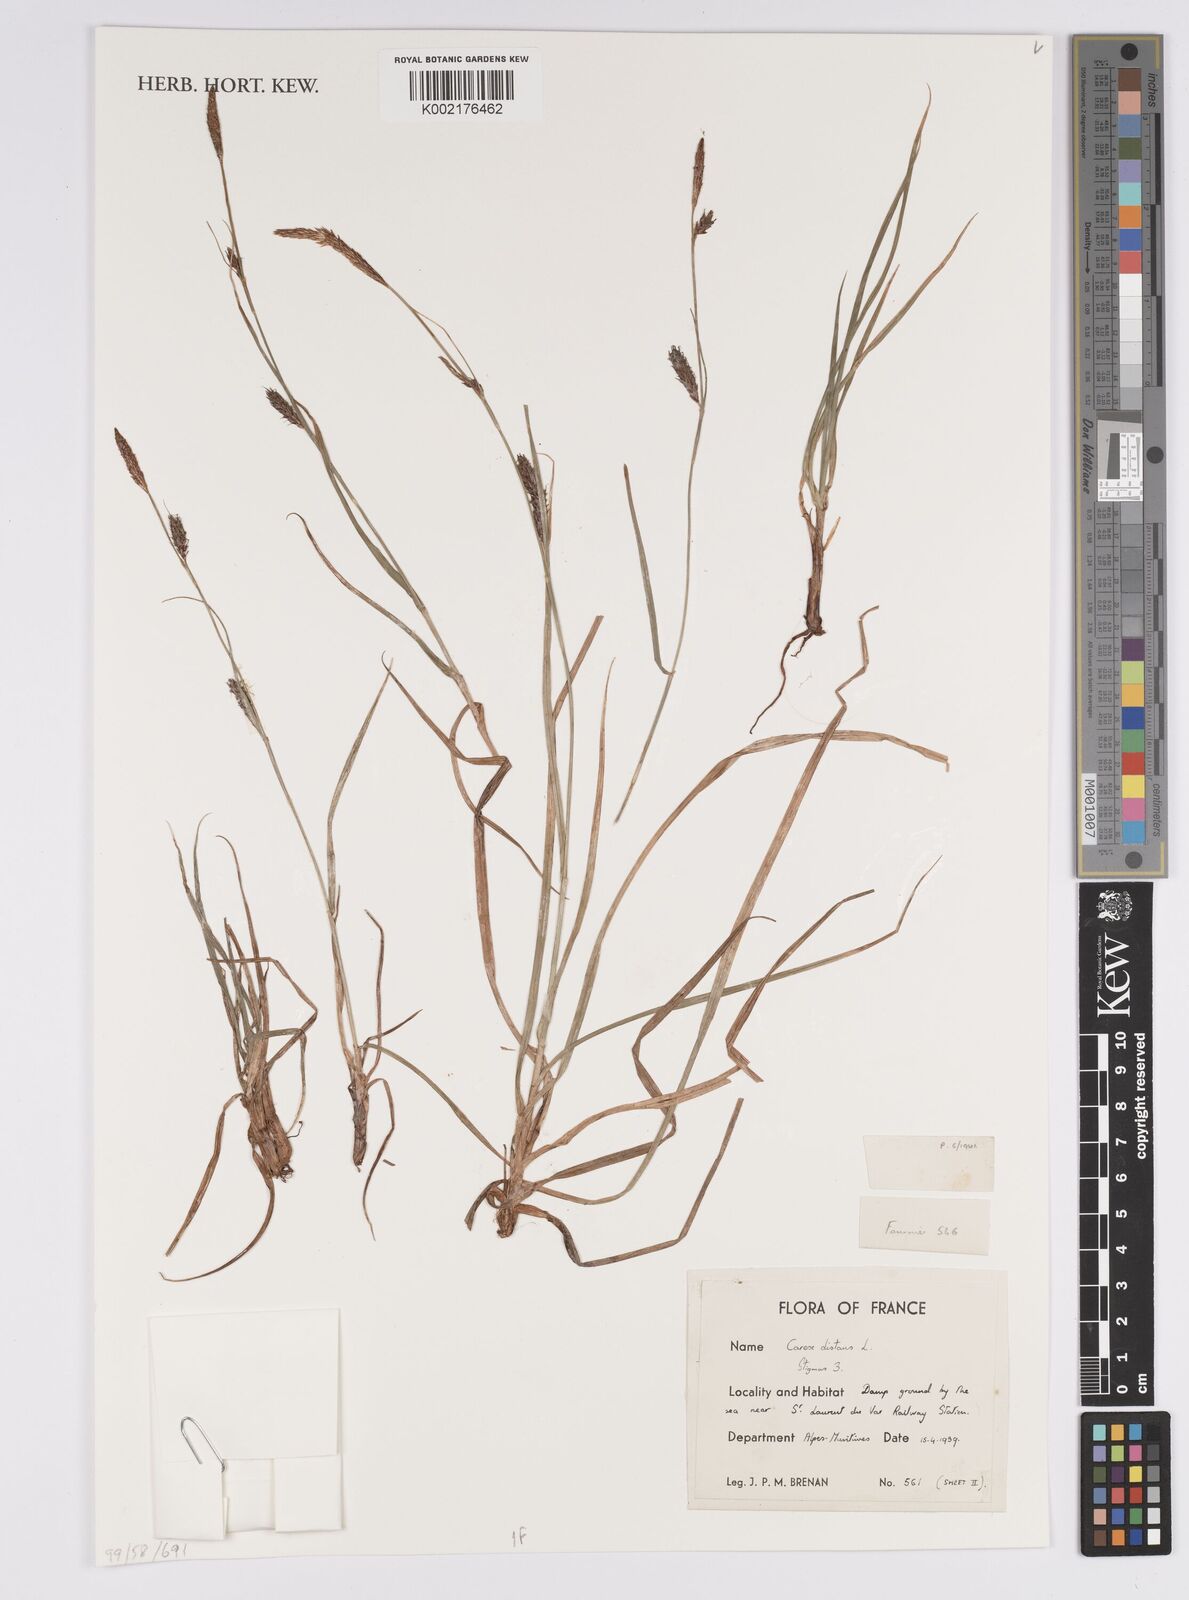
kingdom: Plantae
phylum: Tracheophyta
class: Liliopsida
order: Poales
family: Cyperaceae
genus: Carex
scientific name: Carex distans
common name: Distant sedge
